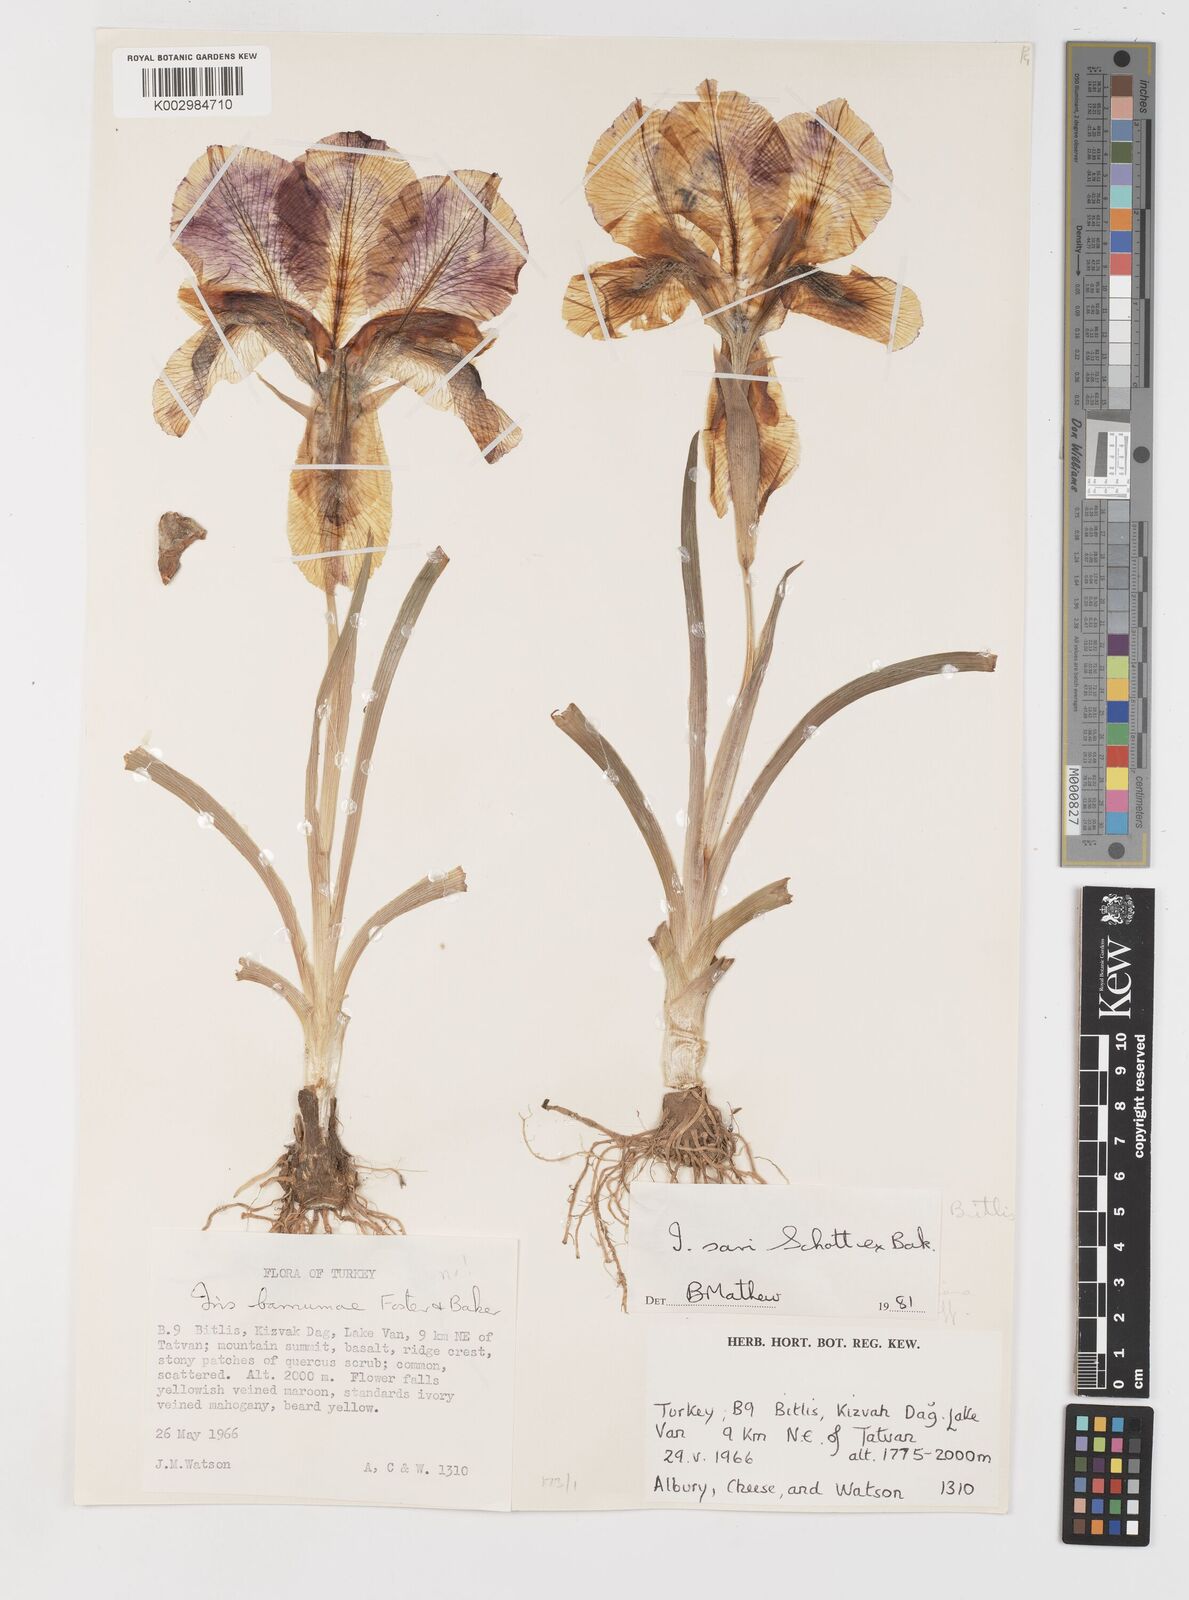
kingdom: Plantae
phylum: Tracheophyta
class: Liliopsida
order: Asparagales
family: Iridaceae
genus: Iris
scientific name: Iris sari
